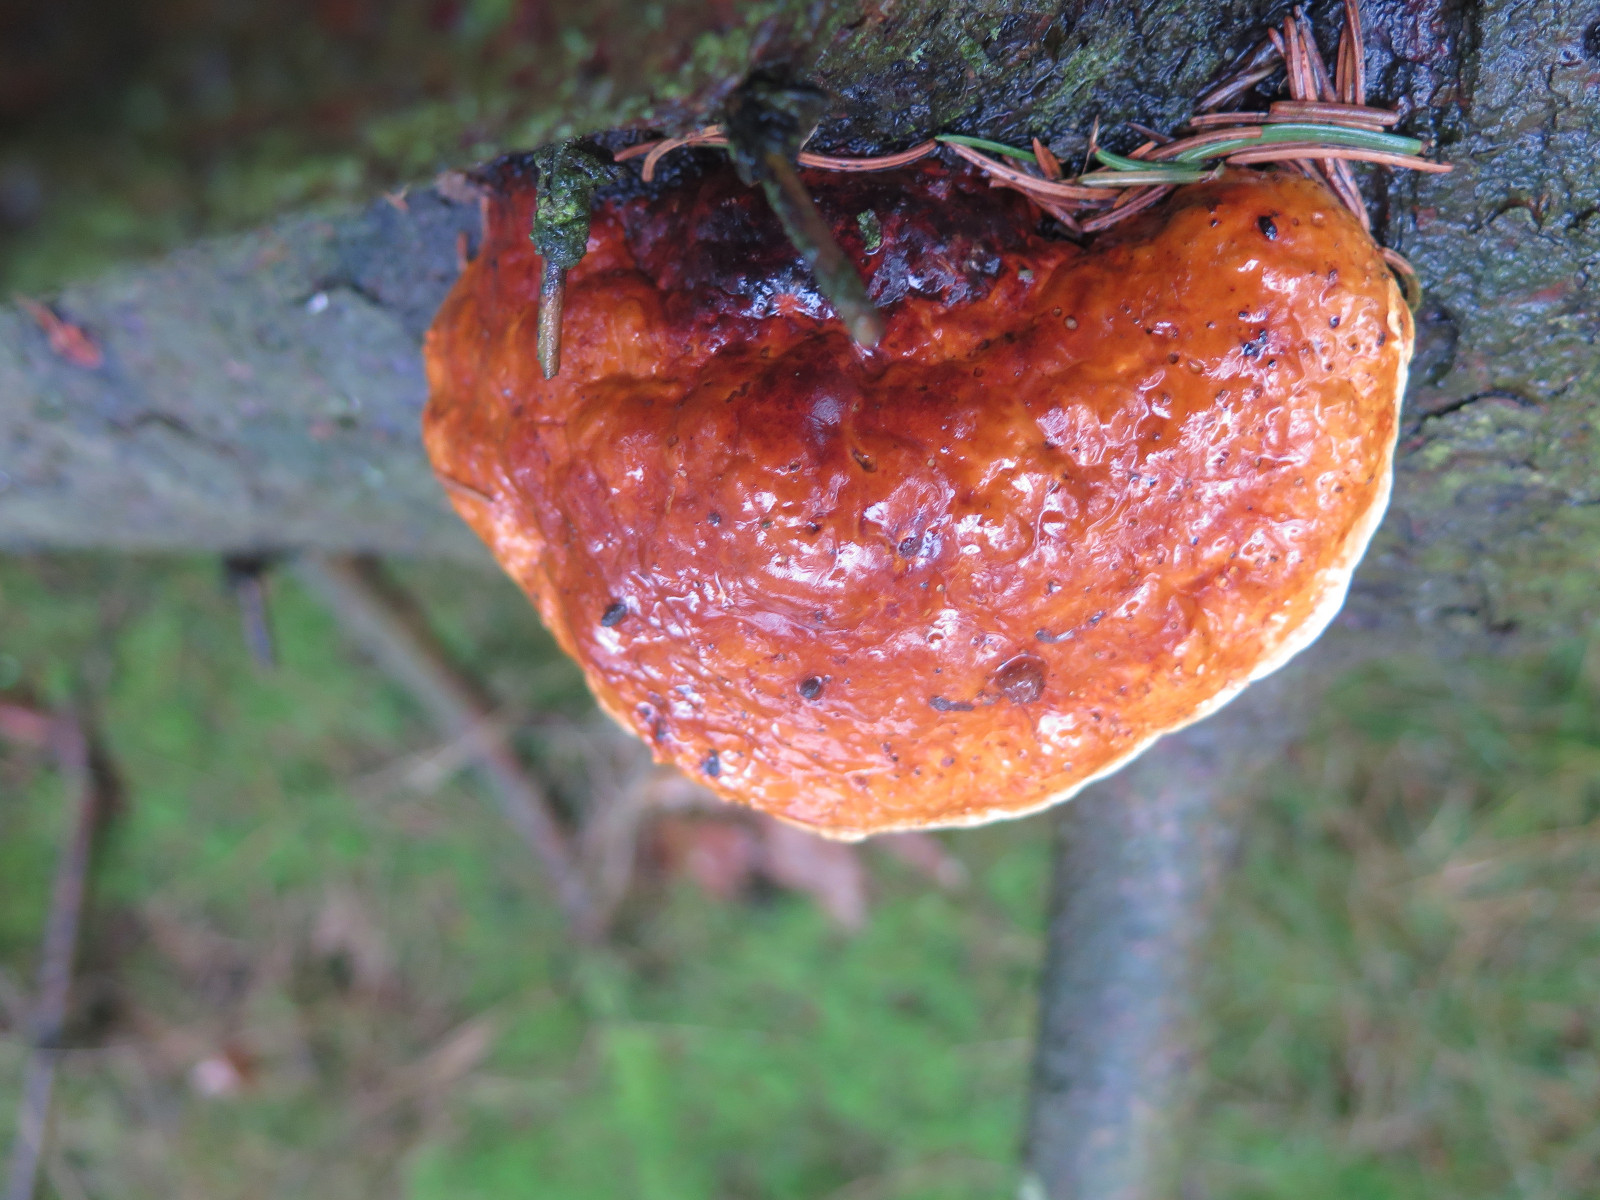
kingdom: Fungi
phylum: Basidiomycota
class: Agaricomycetes
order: Polyporales
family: Fomitopsidaceae
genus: Fomitopsis
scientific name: Fomitopsis pinicola
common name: randbæltet hovporesvamp
